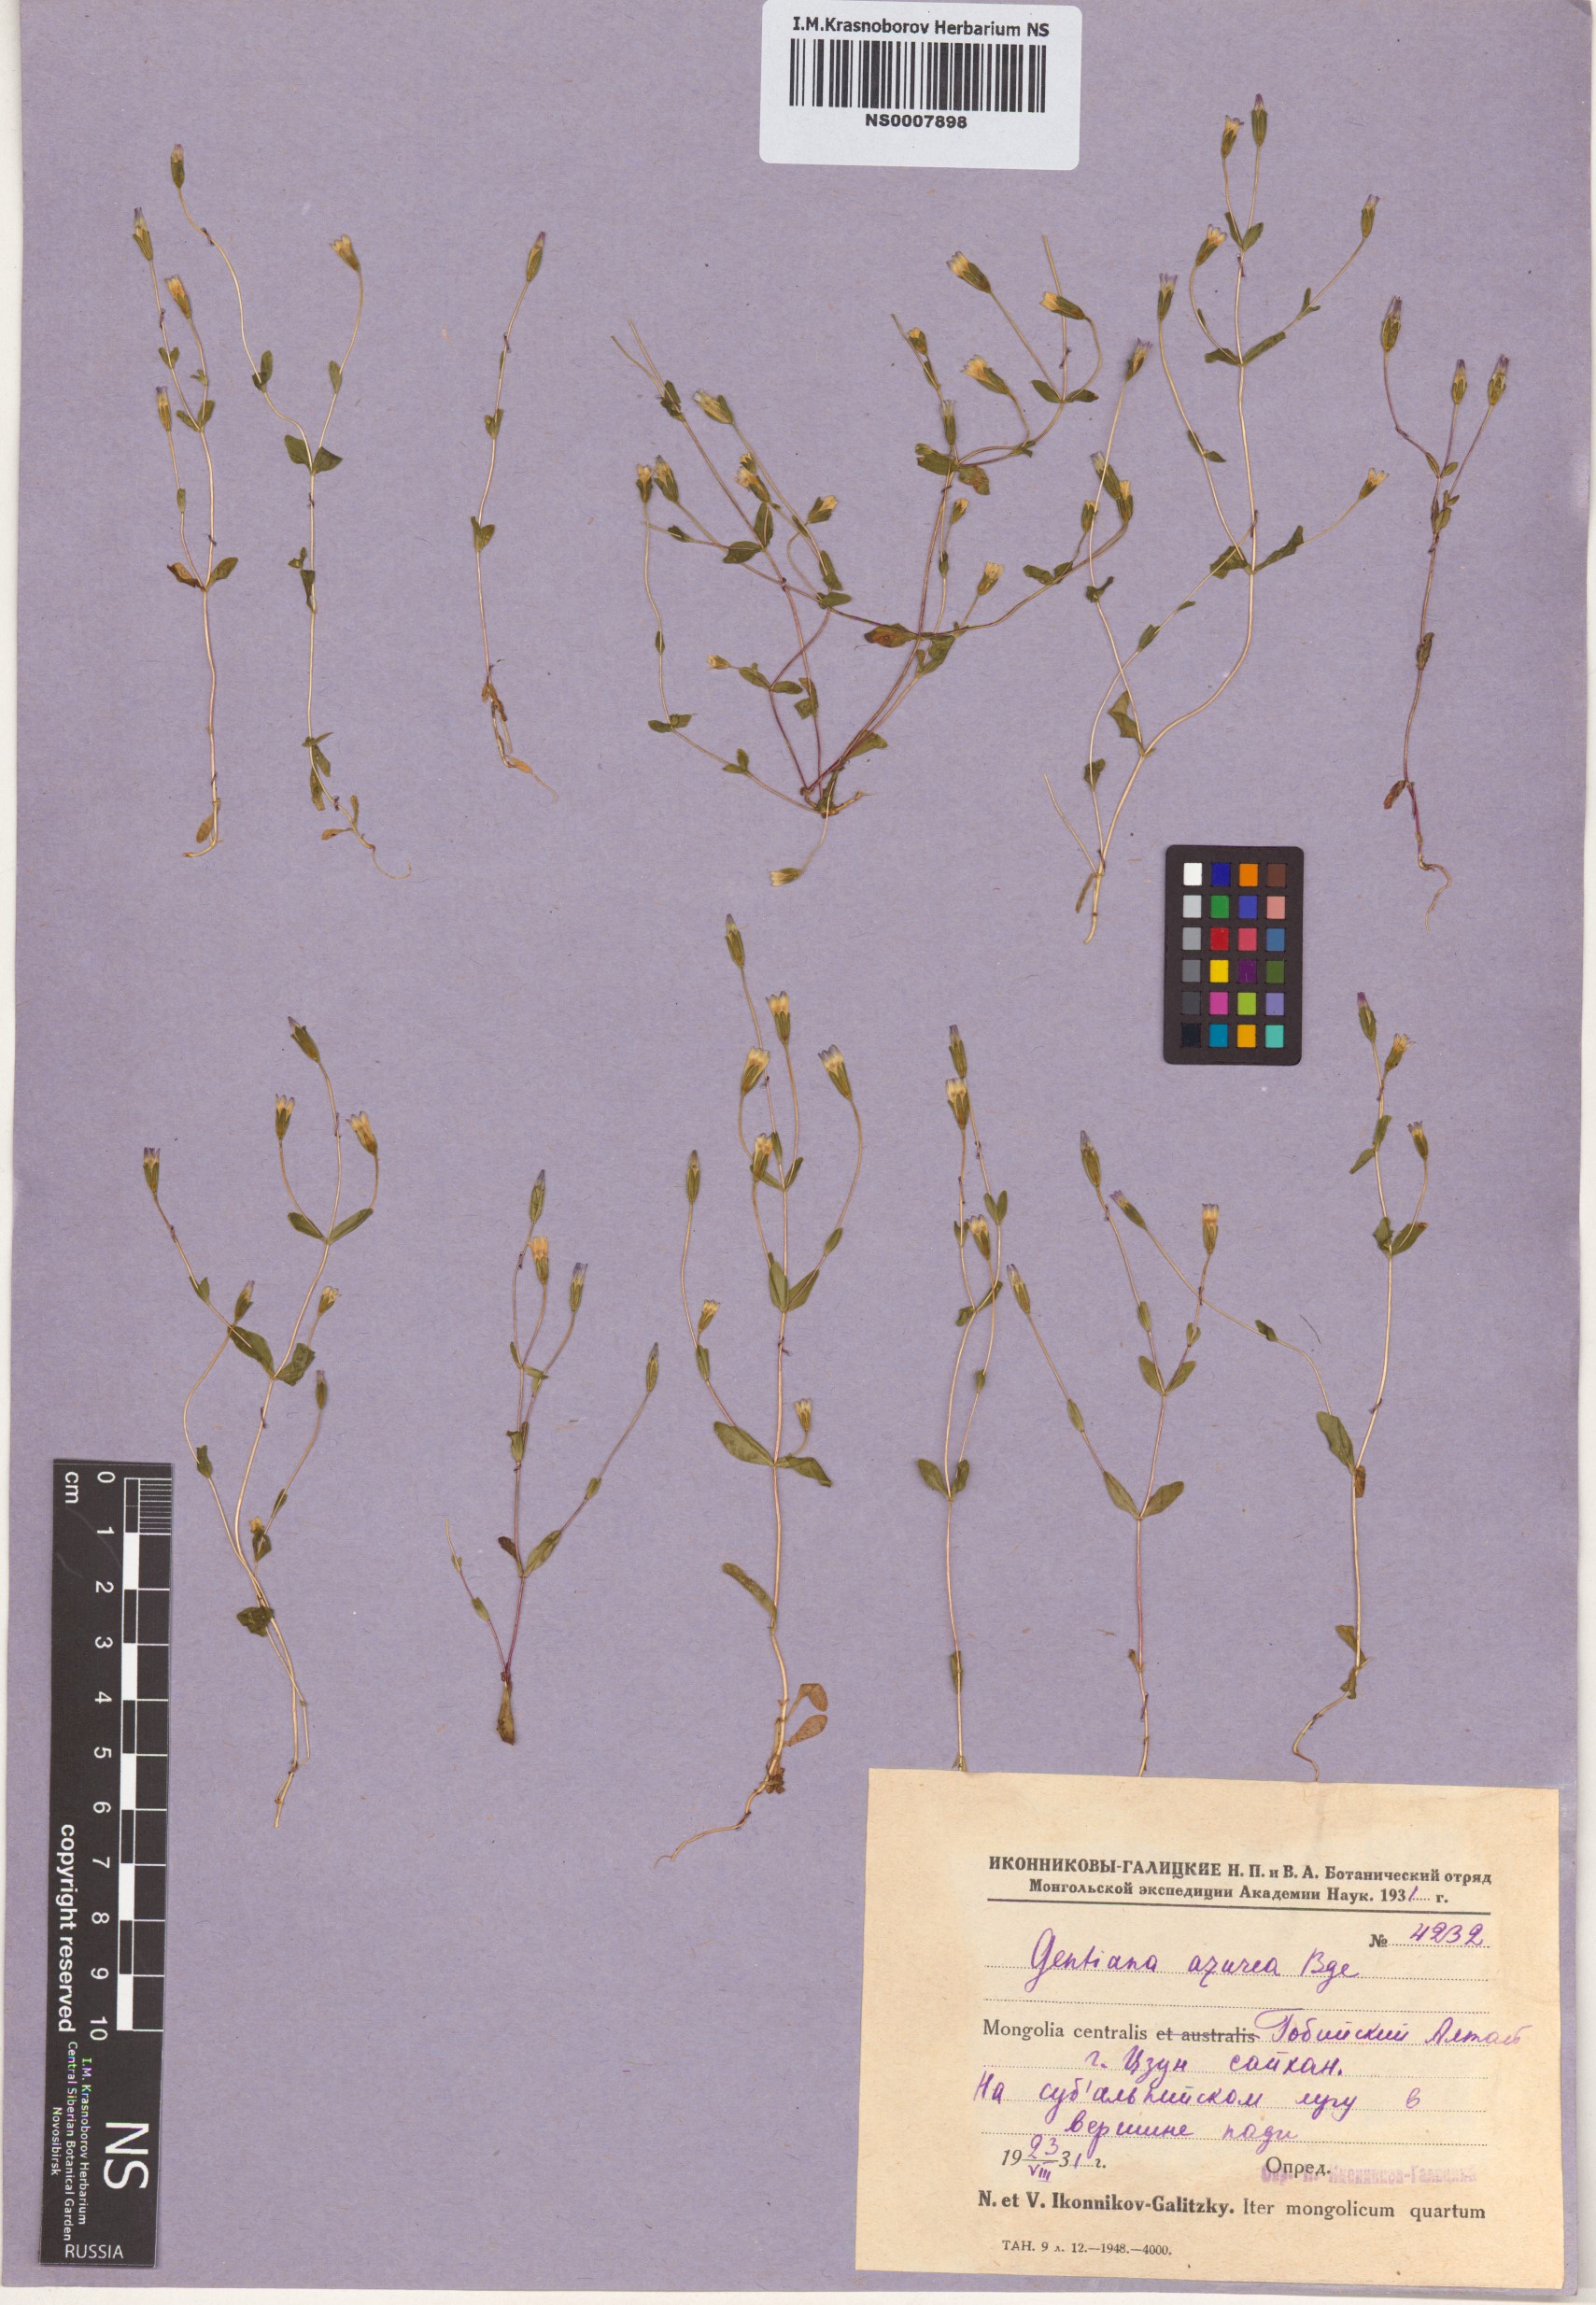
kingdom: Plantae
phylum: Tracheophyta
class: Magnoliopsida
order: Gentianales
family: Gentianaceae
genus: Gentianella
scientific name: Gentianella azurea
